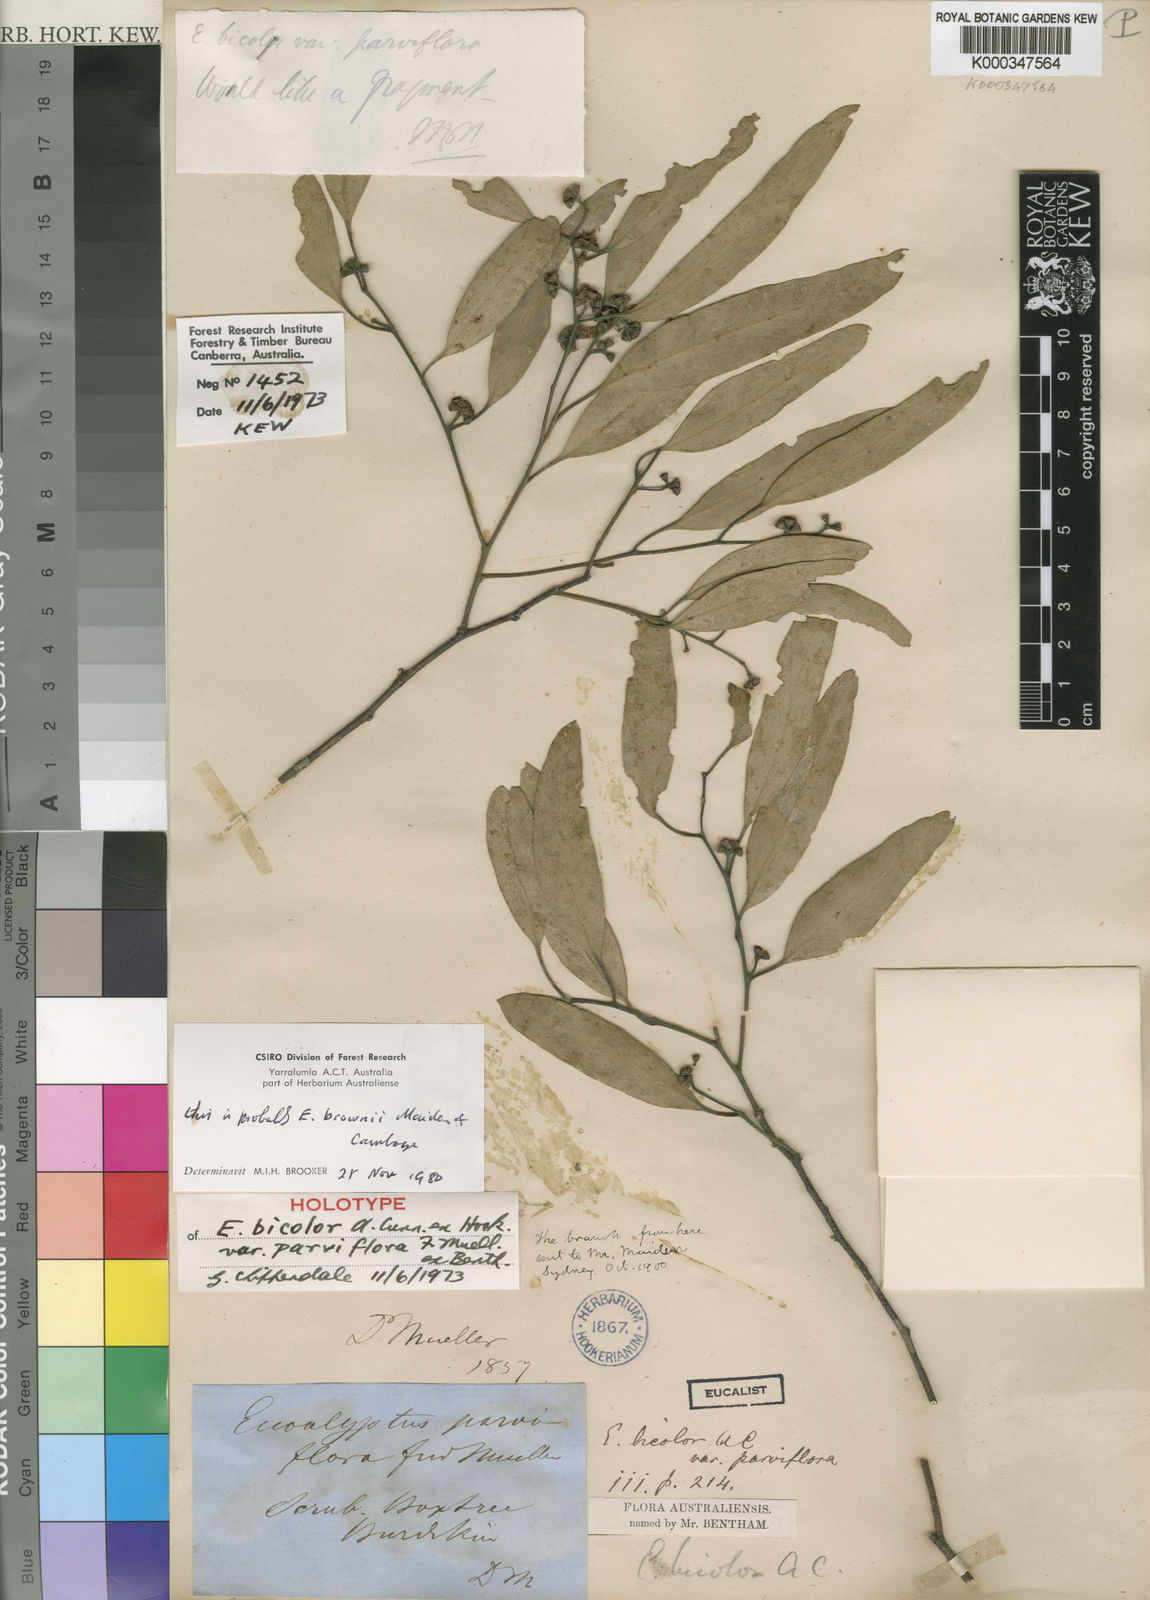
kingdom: Plantae
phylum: Tracheophyta
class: Magnoliopsida
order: Myrtales
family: Myrtaceae
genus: Eucalyptus
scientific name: Eucalyptus brownii
